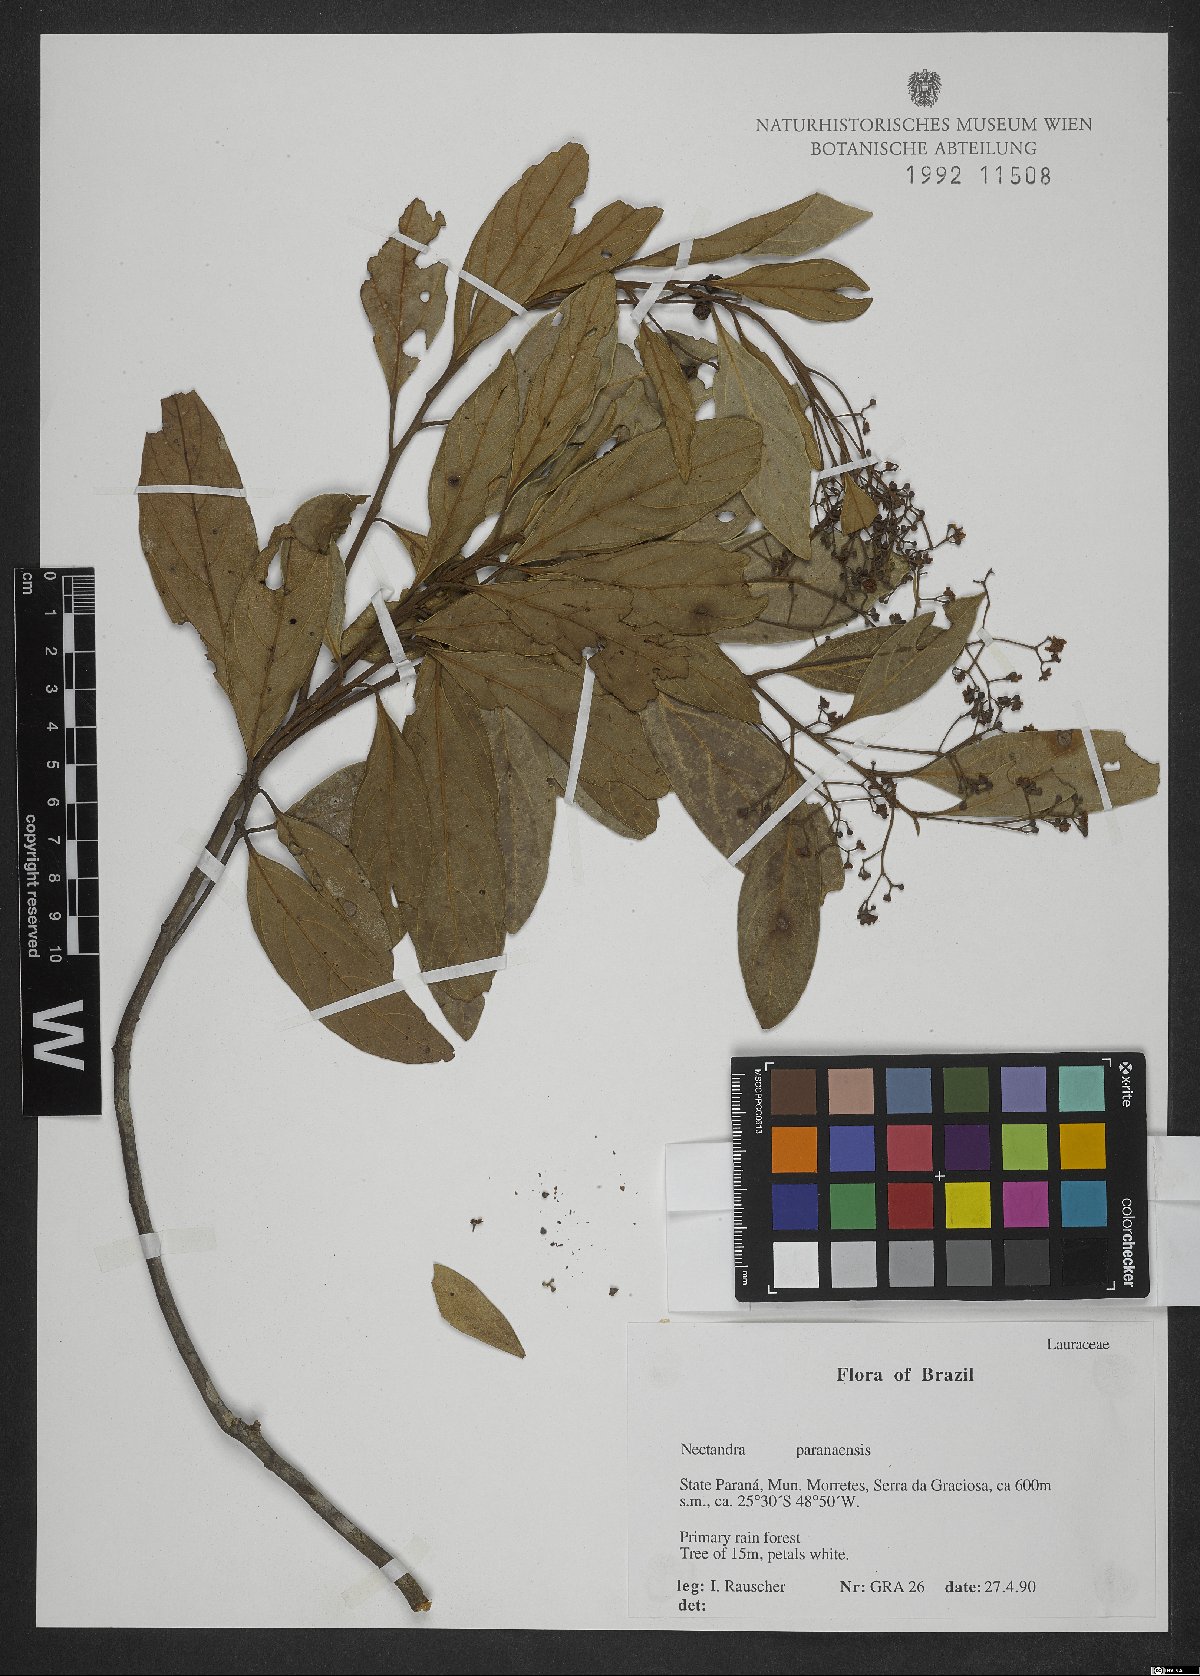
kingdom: Plantae
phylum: Tracheophyta
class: Magnoliopsida
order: Laurales
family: Lauraceae
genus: Nectandra
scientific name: Nectandra paranaensis
